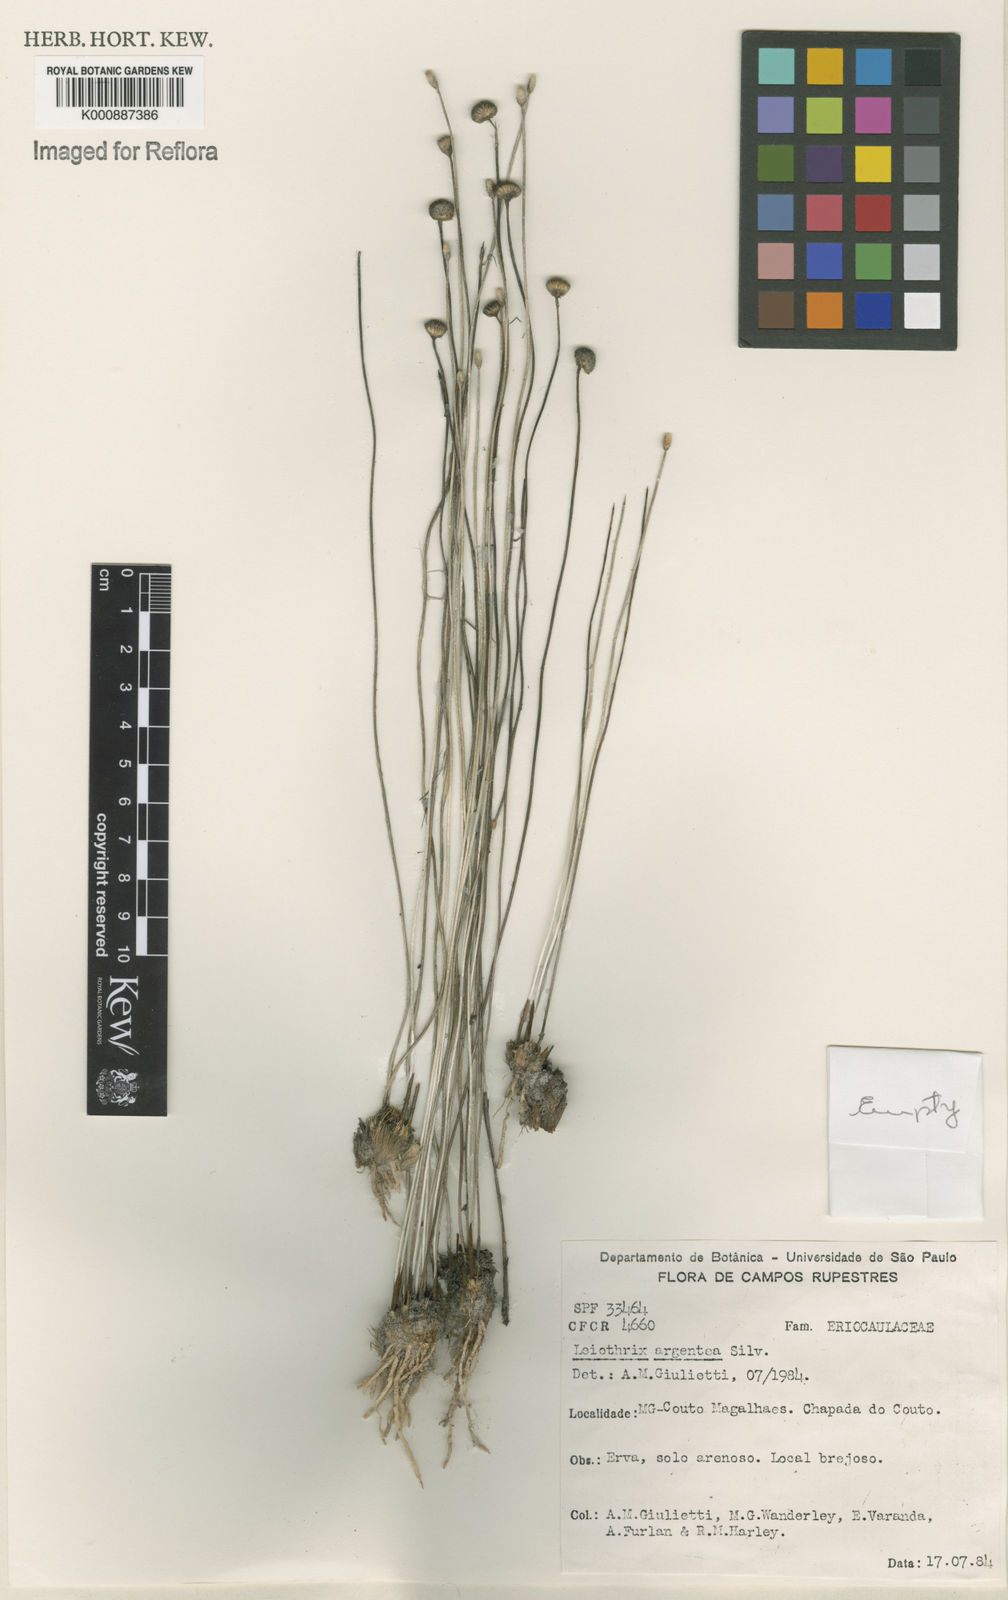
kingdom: Plantae
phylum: Tracheophyta
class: Liliopsida
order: Poales
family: Eriocaulaceae
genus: Leiothrix
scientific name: Leiothrix argentea
